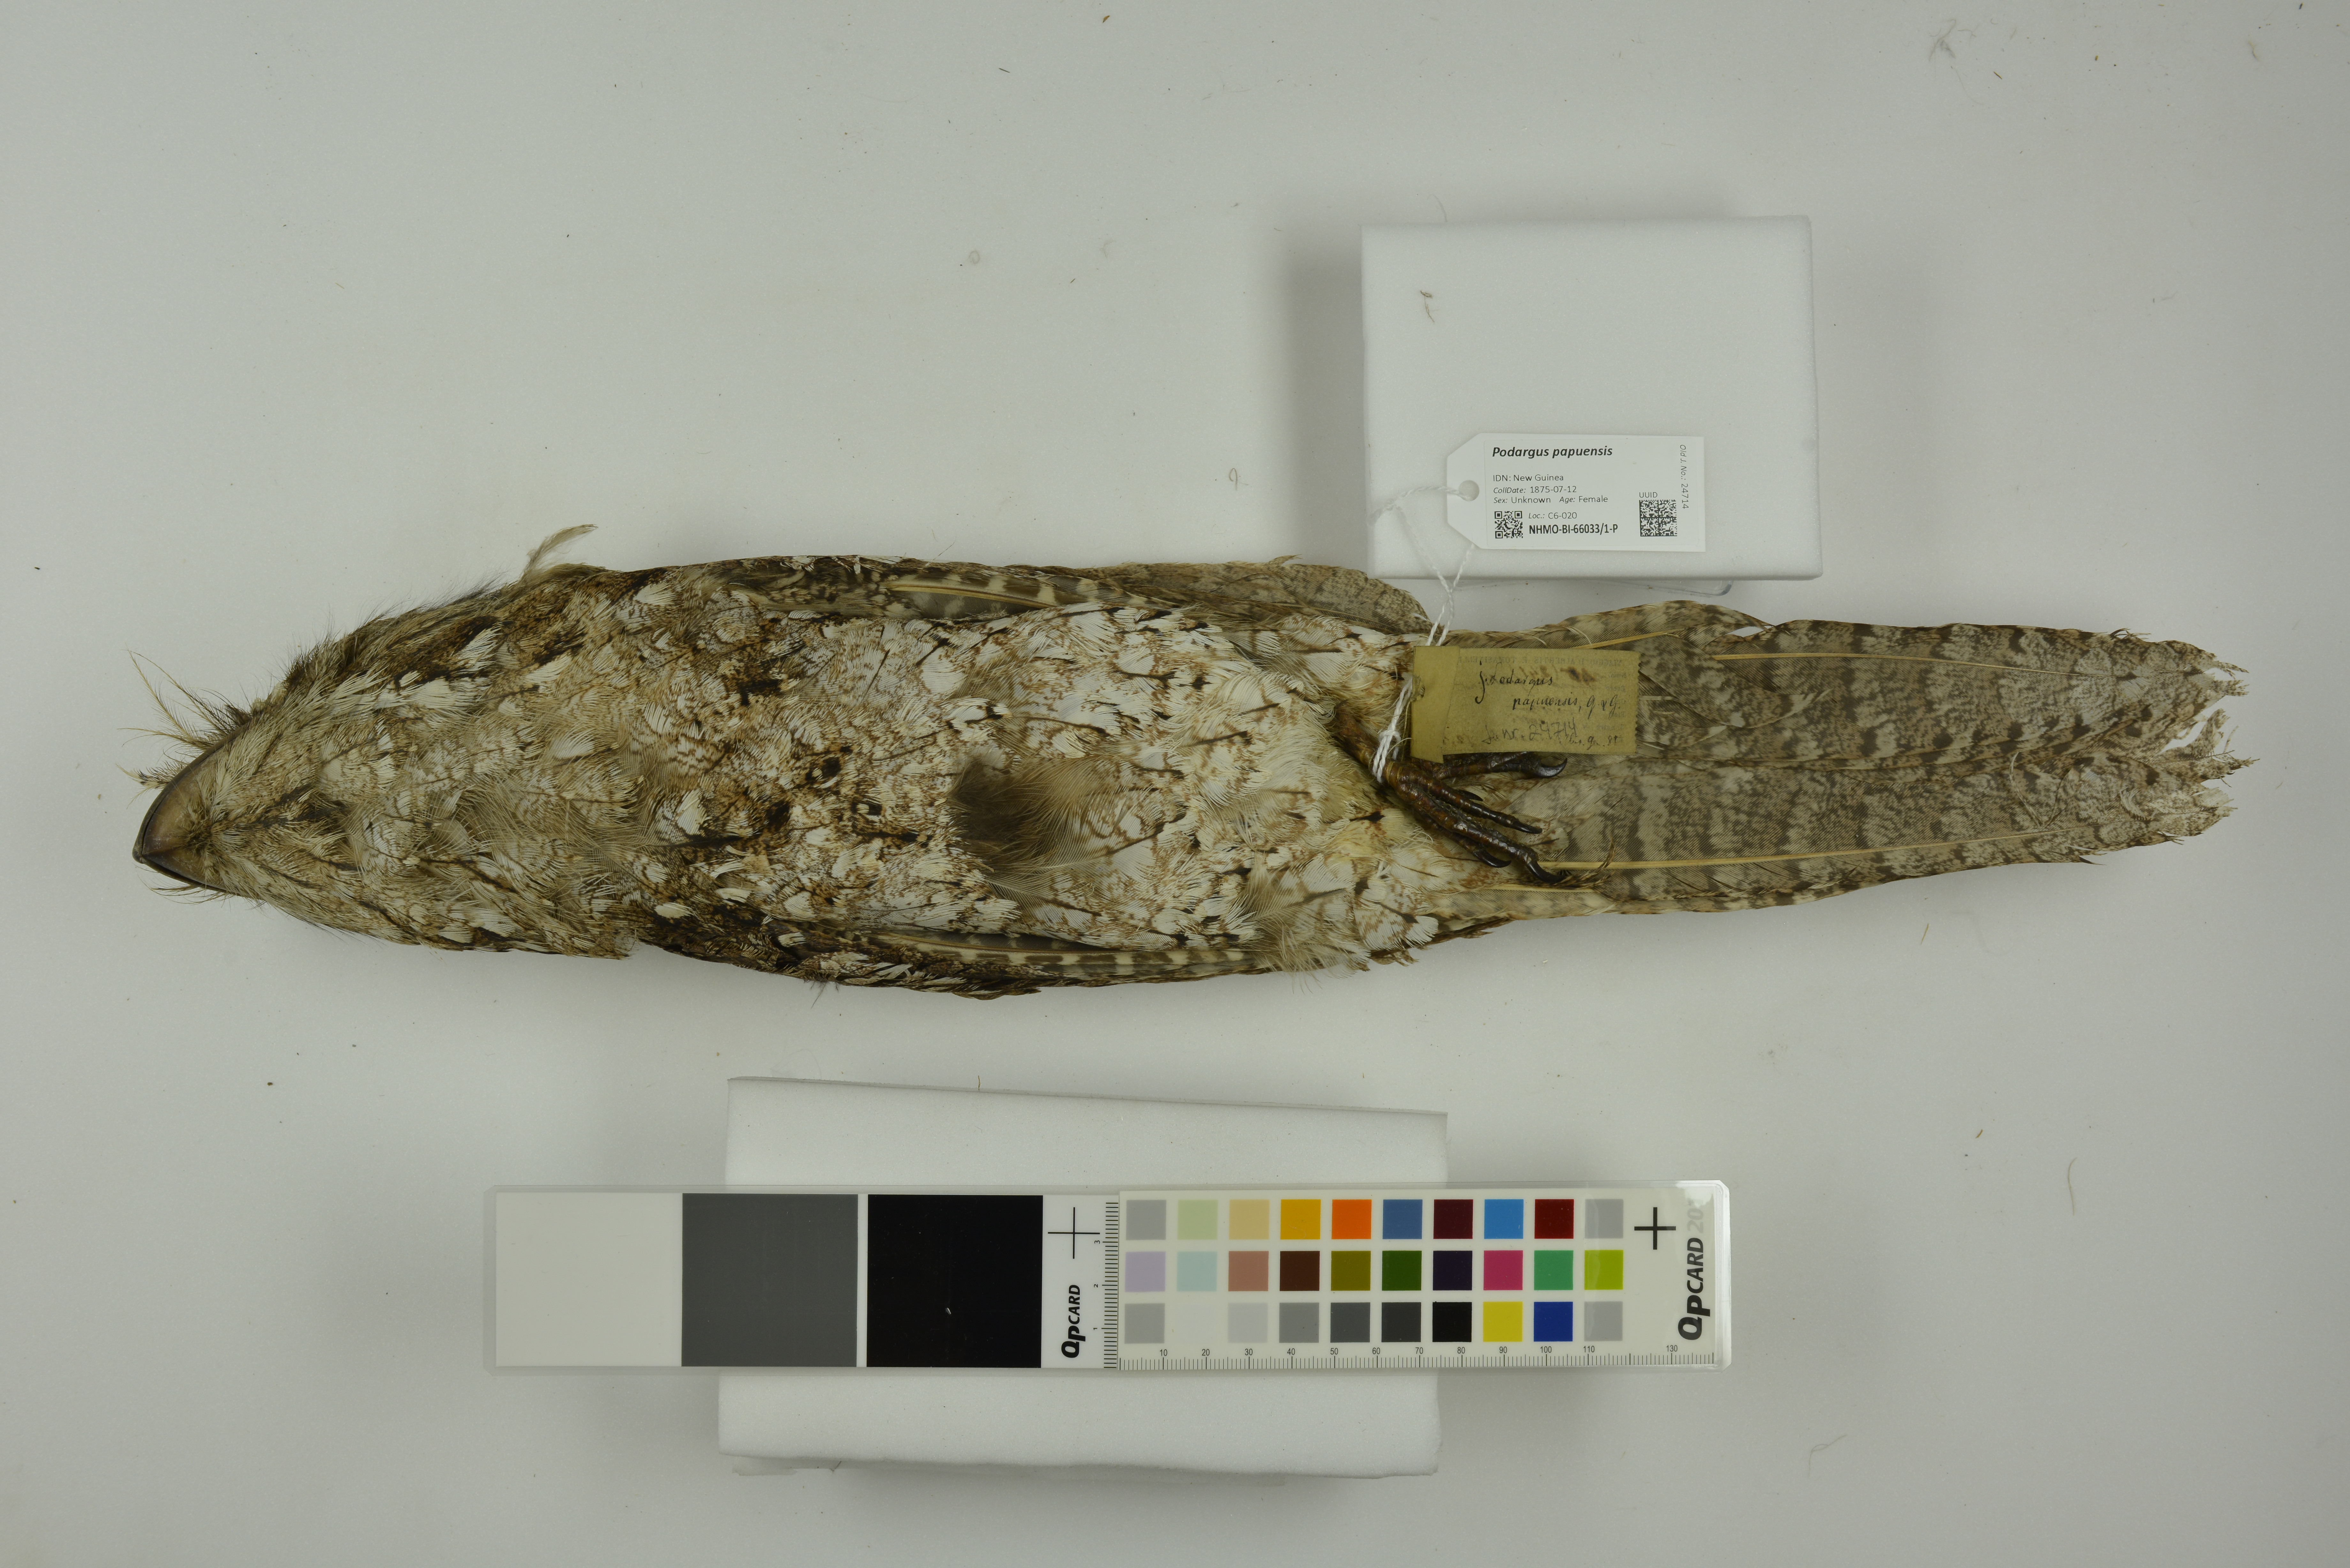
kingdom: Animalia
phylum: Chordata
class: Aves
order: Caprimulgiformes
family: Podargidae
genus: Podargus
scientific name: Podargus papuensis
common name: Papuan frogmouth
